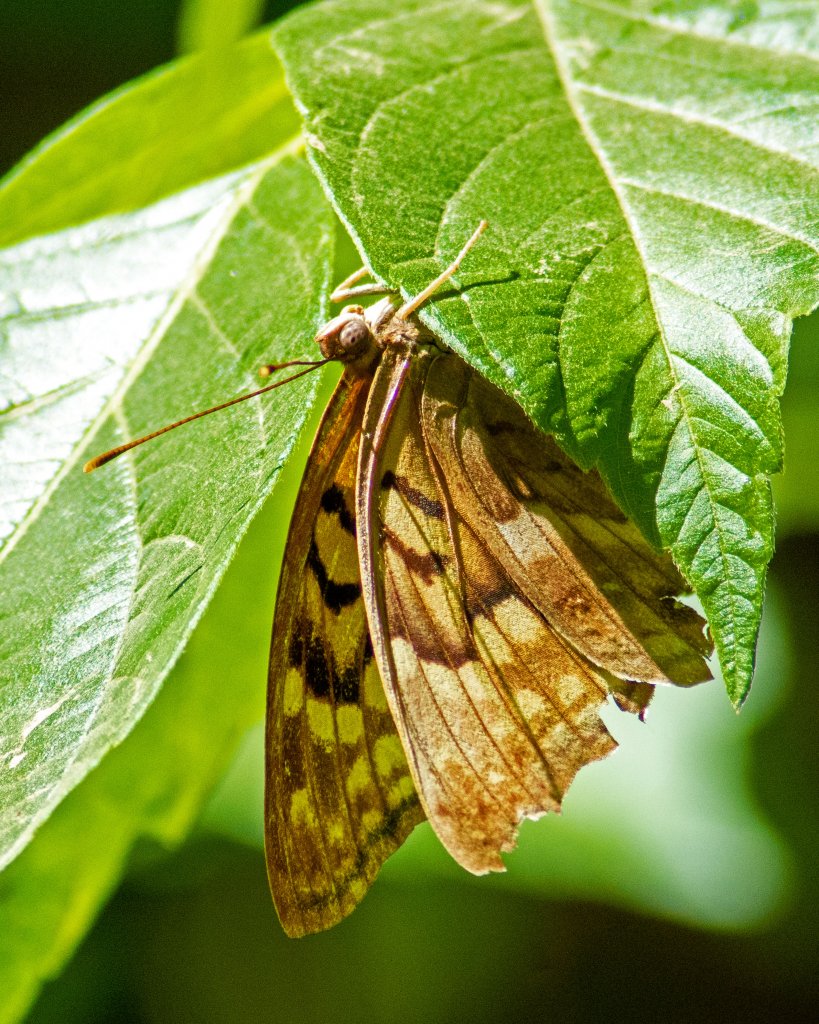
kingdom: Animalia
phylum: Arthropoda
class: Insecta
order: Lepidoptera
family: Nymphalidae
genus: Asterocampa
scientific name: Asterocampa clyton
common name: Tawny Emperor
